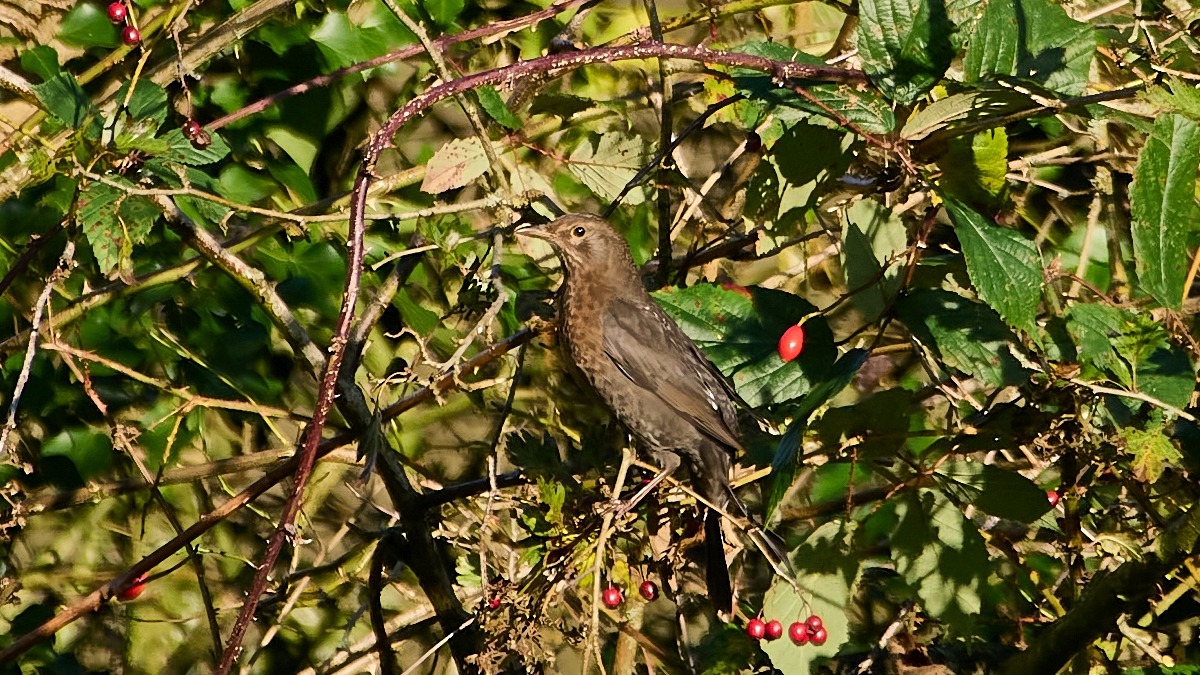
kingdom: Animalia
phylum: Chordata
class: Aves
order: Passeriformes
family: Turdidae
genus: Turdus
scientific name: Turdus merula
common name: Solsort
